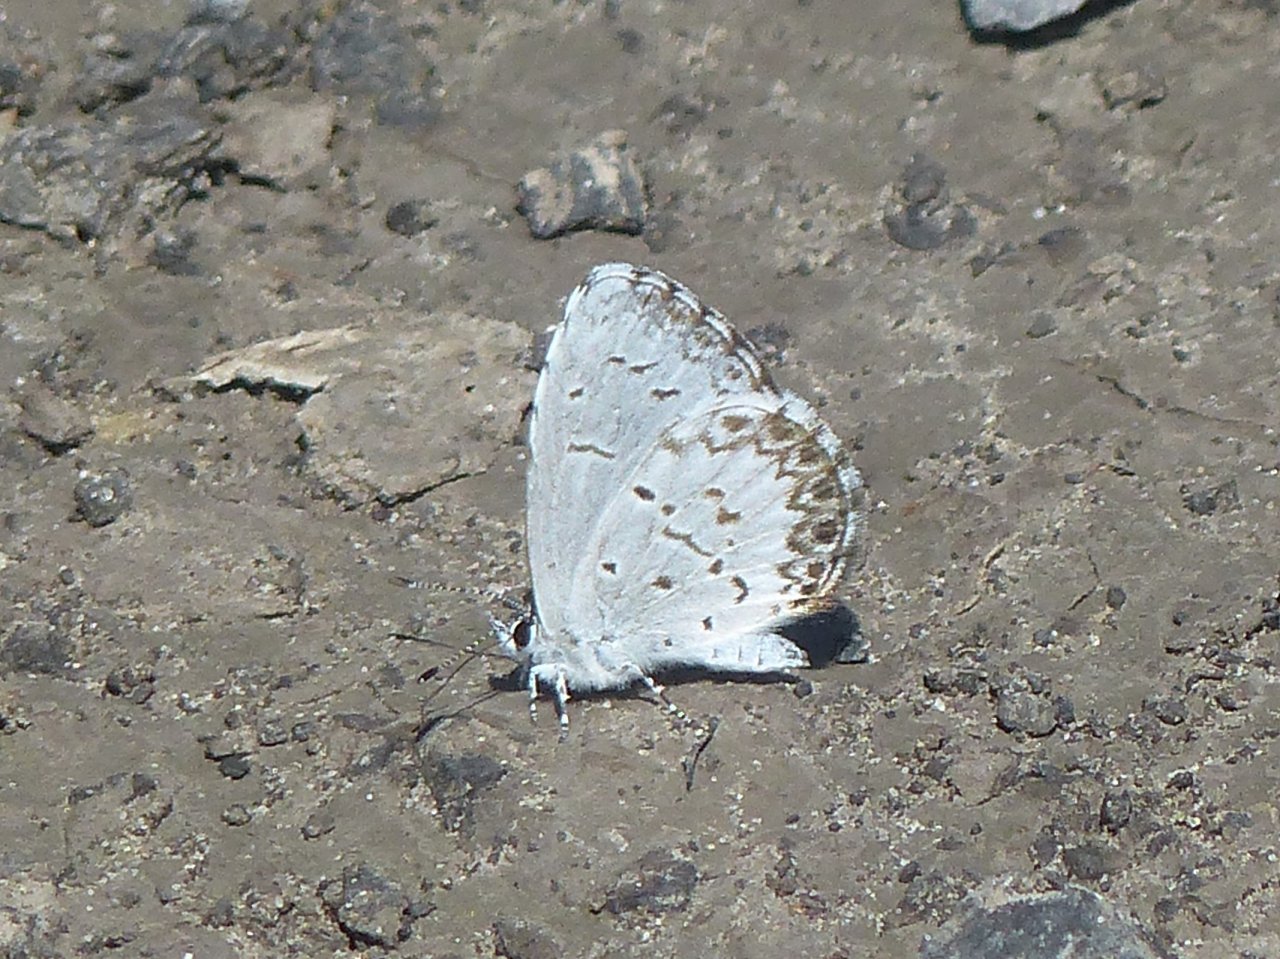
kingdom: Animalia
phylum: Arthropoda
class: Insecta
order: Lepidoptera
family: Lycaenidae
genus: Celastrina
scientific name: Celastrina lucia
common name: Northern Spring Azure
